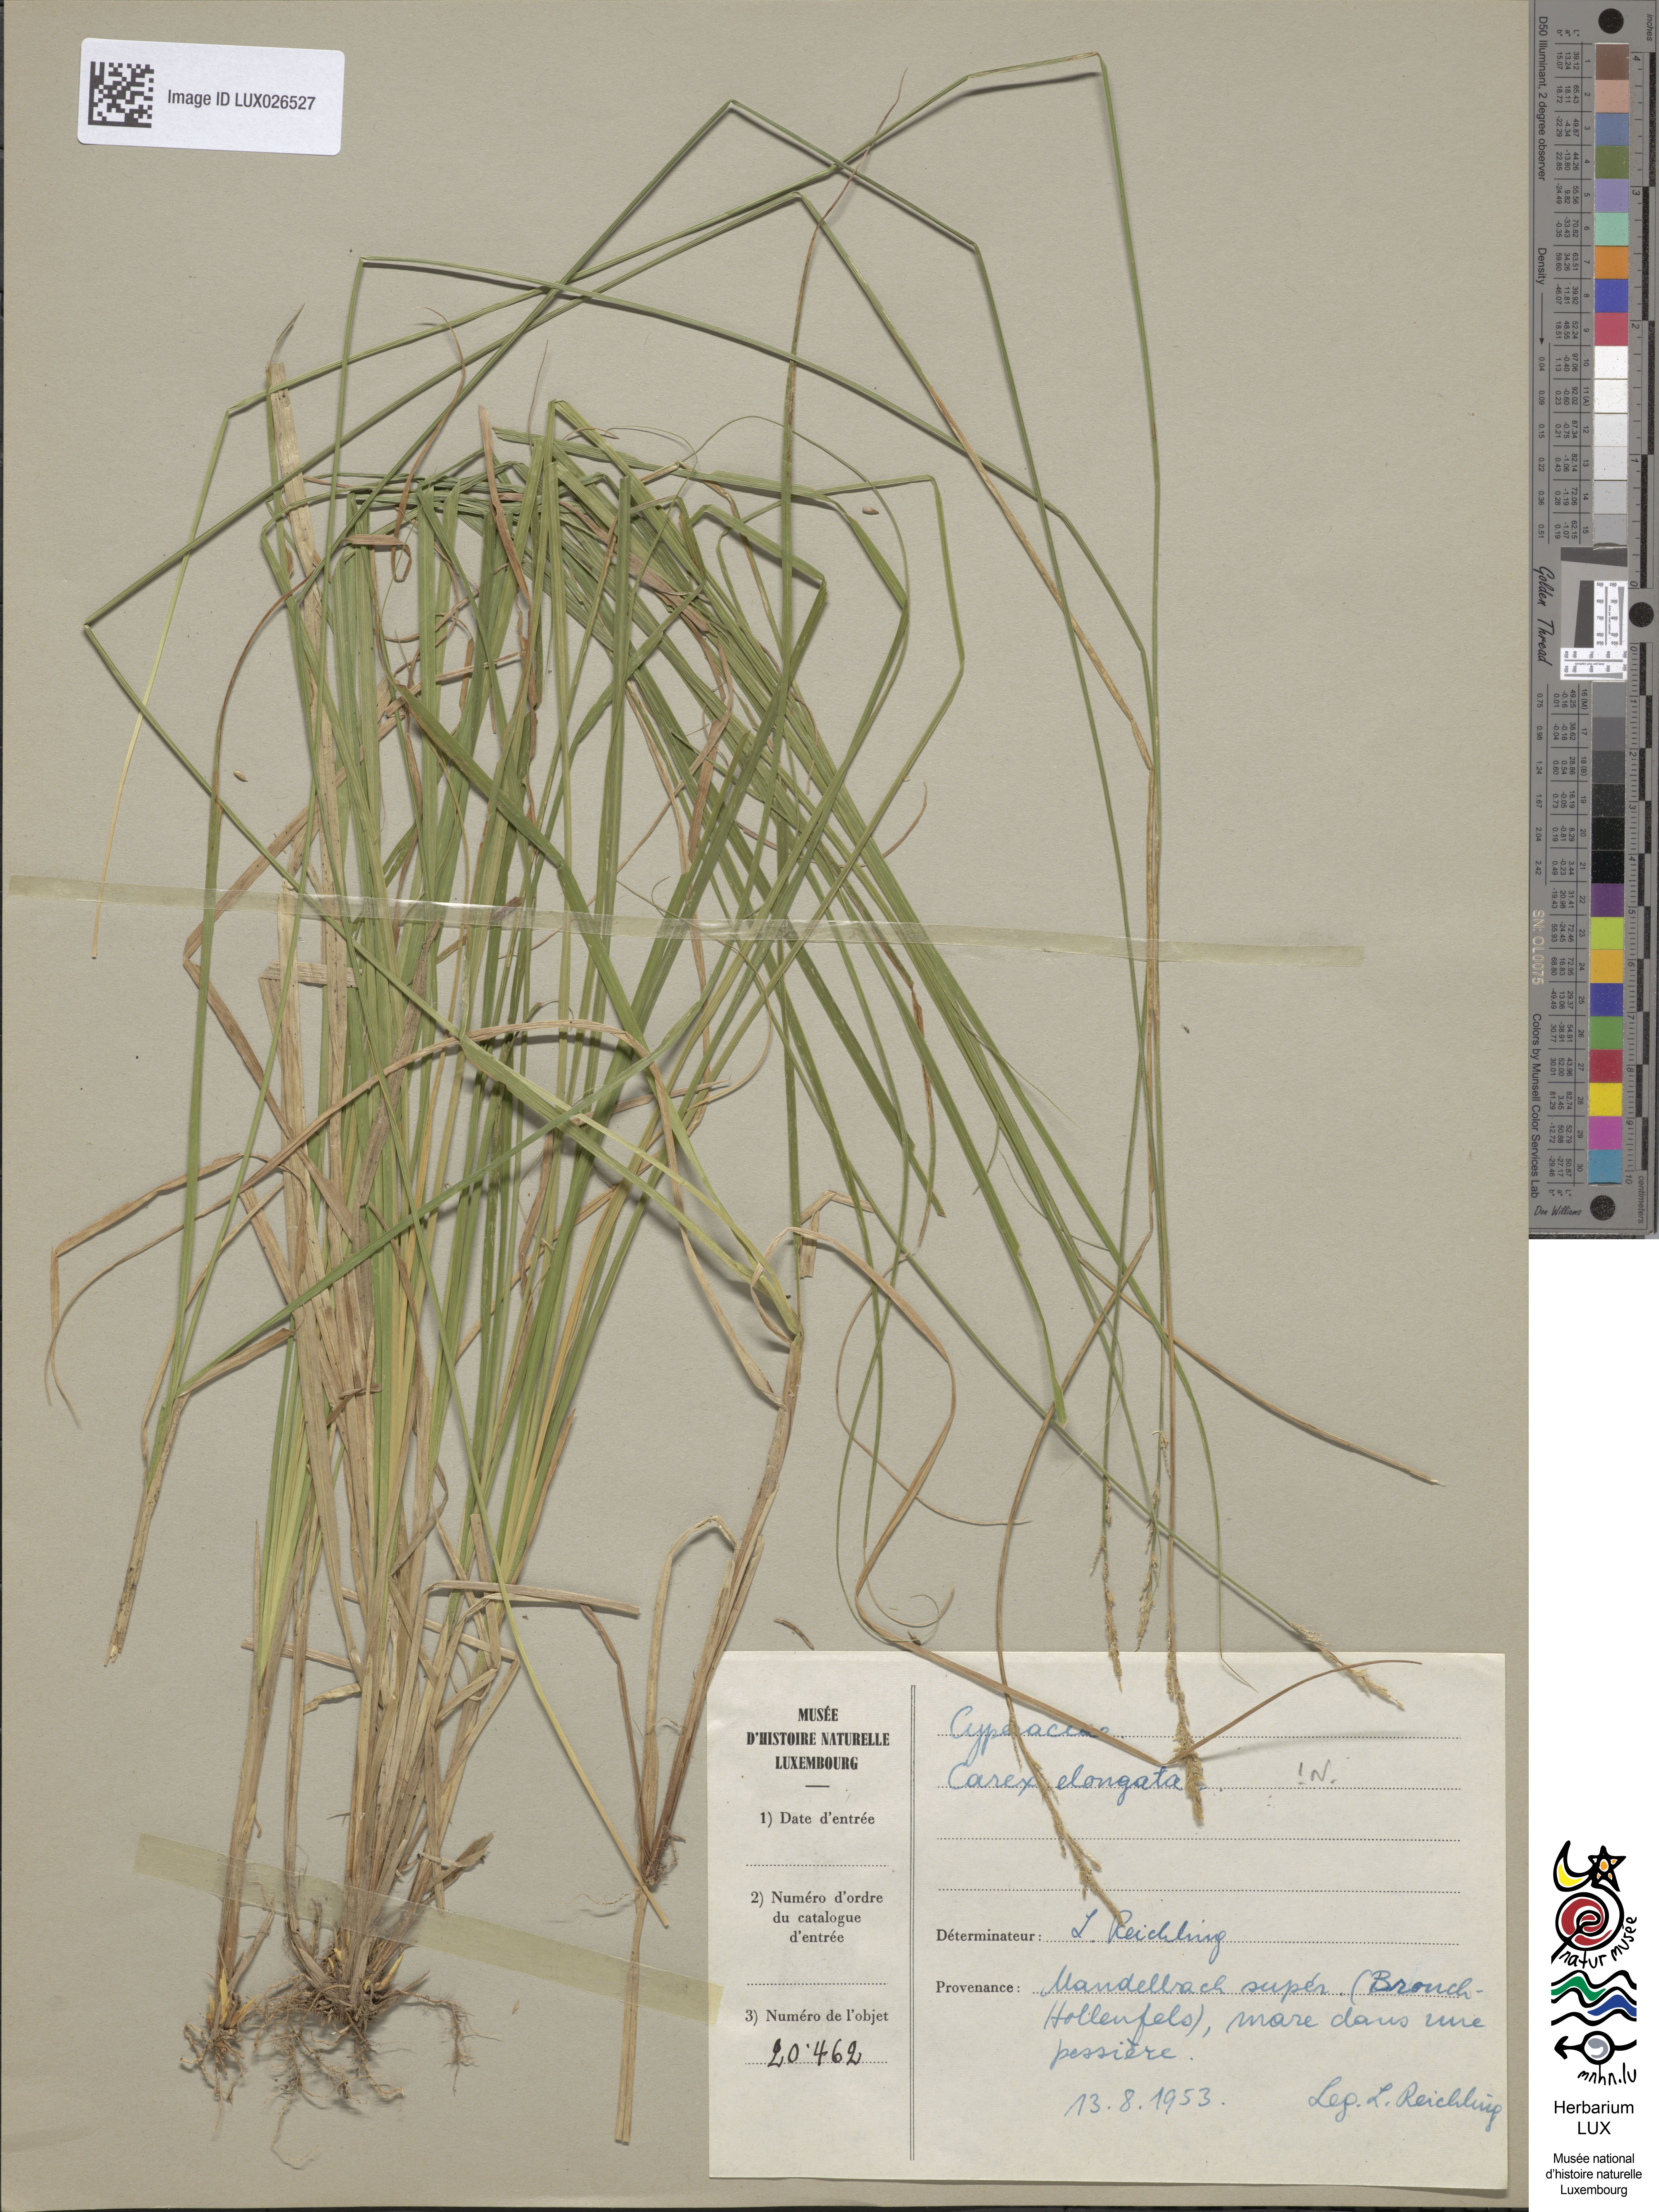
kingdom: Plantae
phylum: Tracheophyta
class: Liliopsida
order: Poales
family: Cyperaceae
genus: Carex
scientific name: Carex elongata
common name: Elongated sedge
